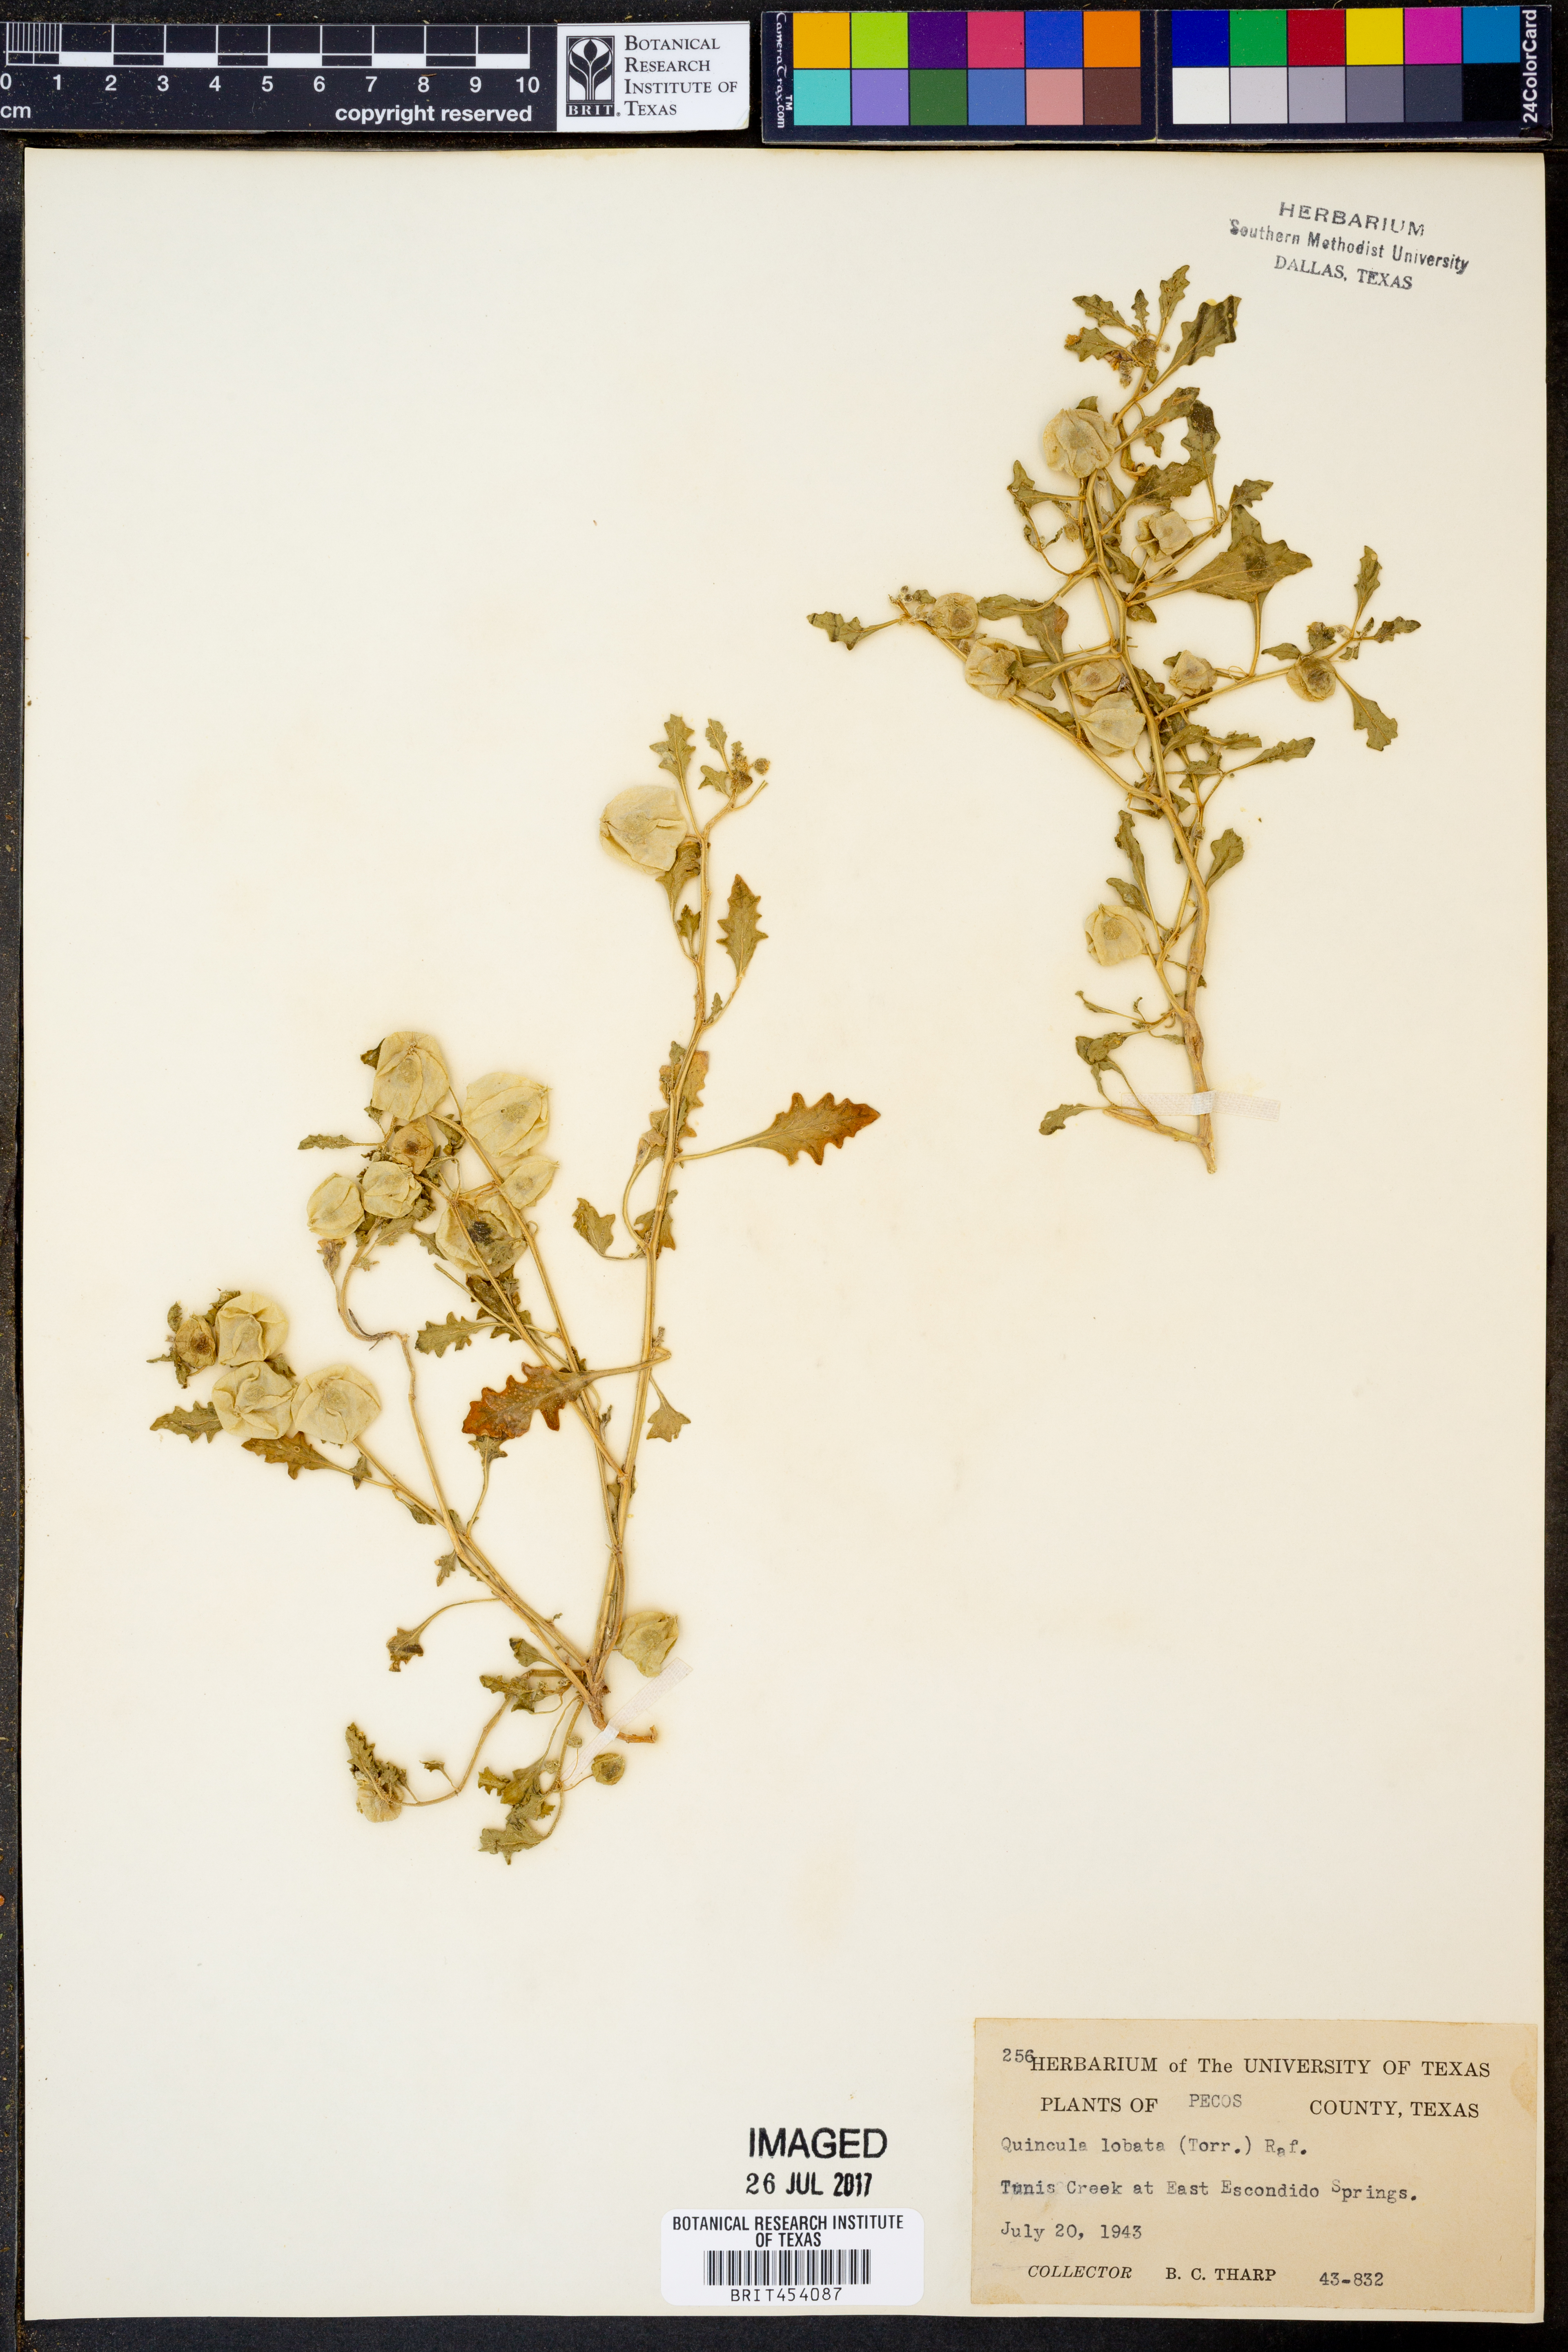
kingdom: Plantae
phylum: Tracheophyta
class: Magnoliopsida
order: Solanales
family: Solanaceae
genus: Quincula
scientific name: Quincula lobata
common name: Purple-ground-cherry
